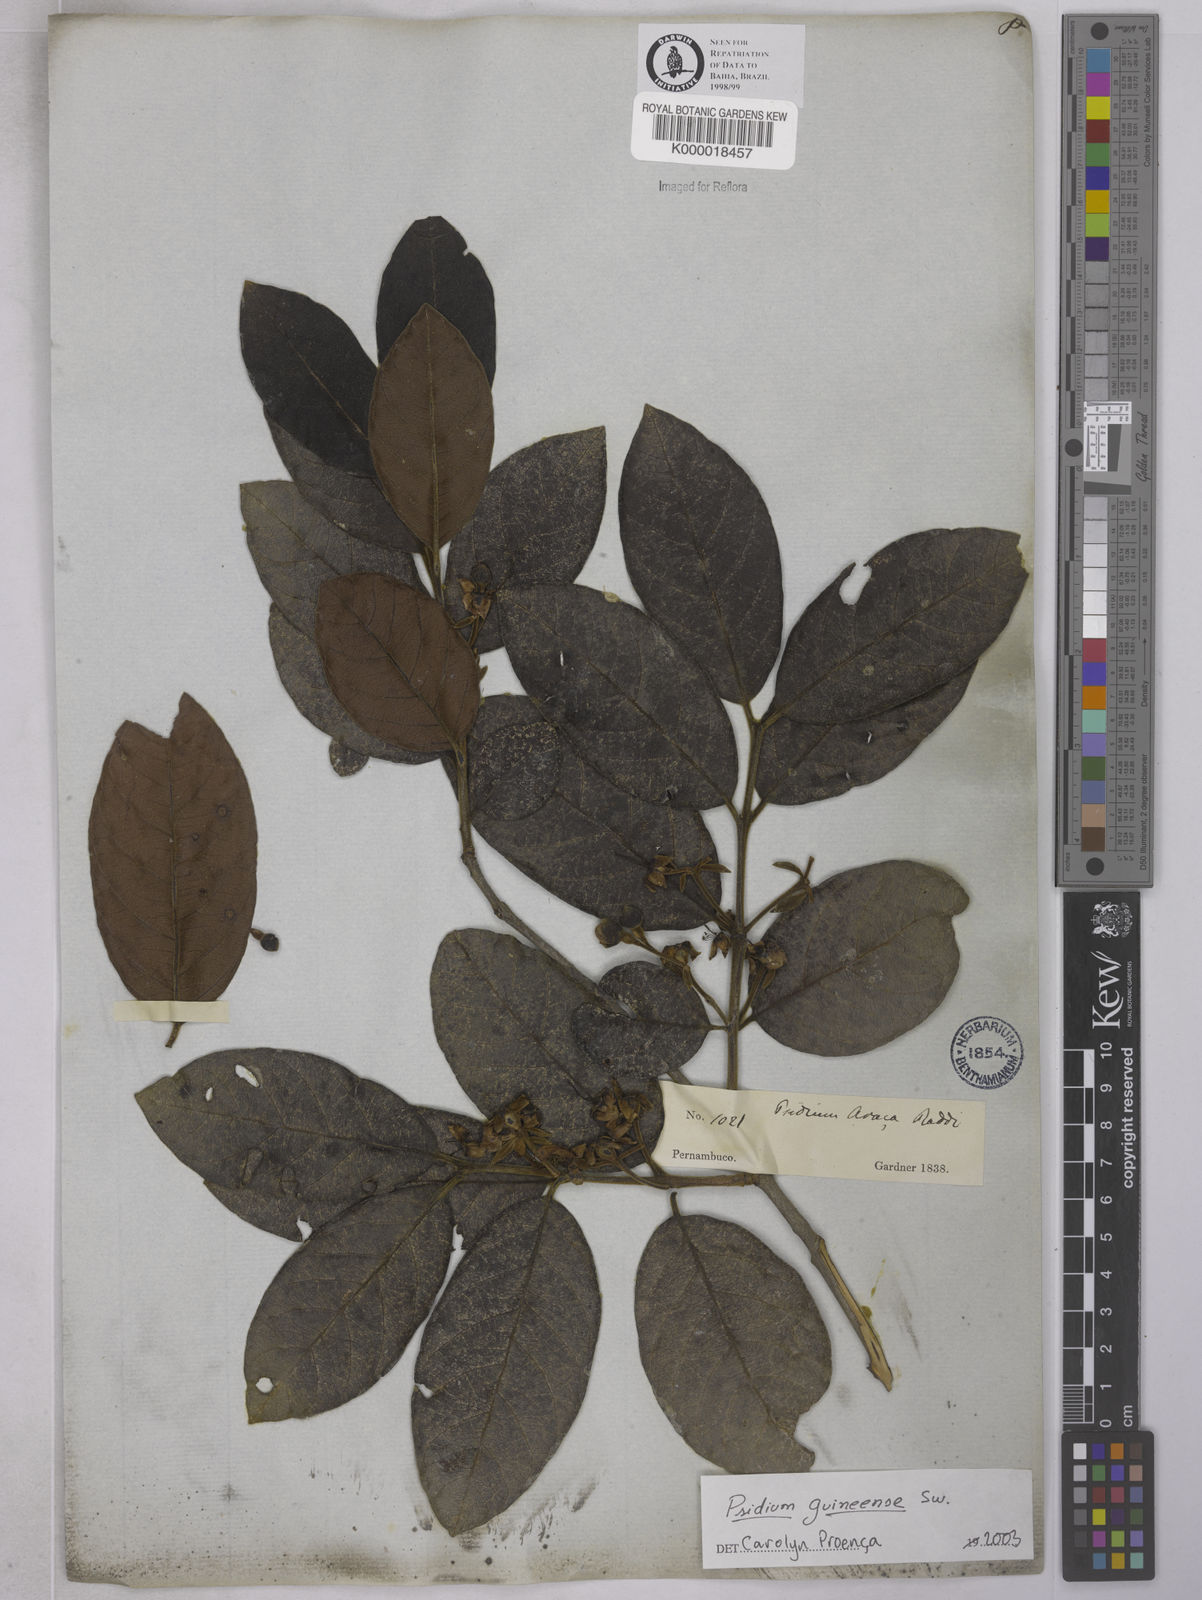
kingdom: Plantae
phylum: Tracheophyta
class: Magnoliopsida
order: Myrtales
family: Myrtaceae
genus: Psidium
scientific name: Psidium guineense
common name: Brazilian guava
